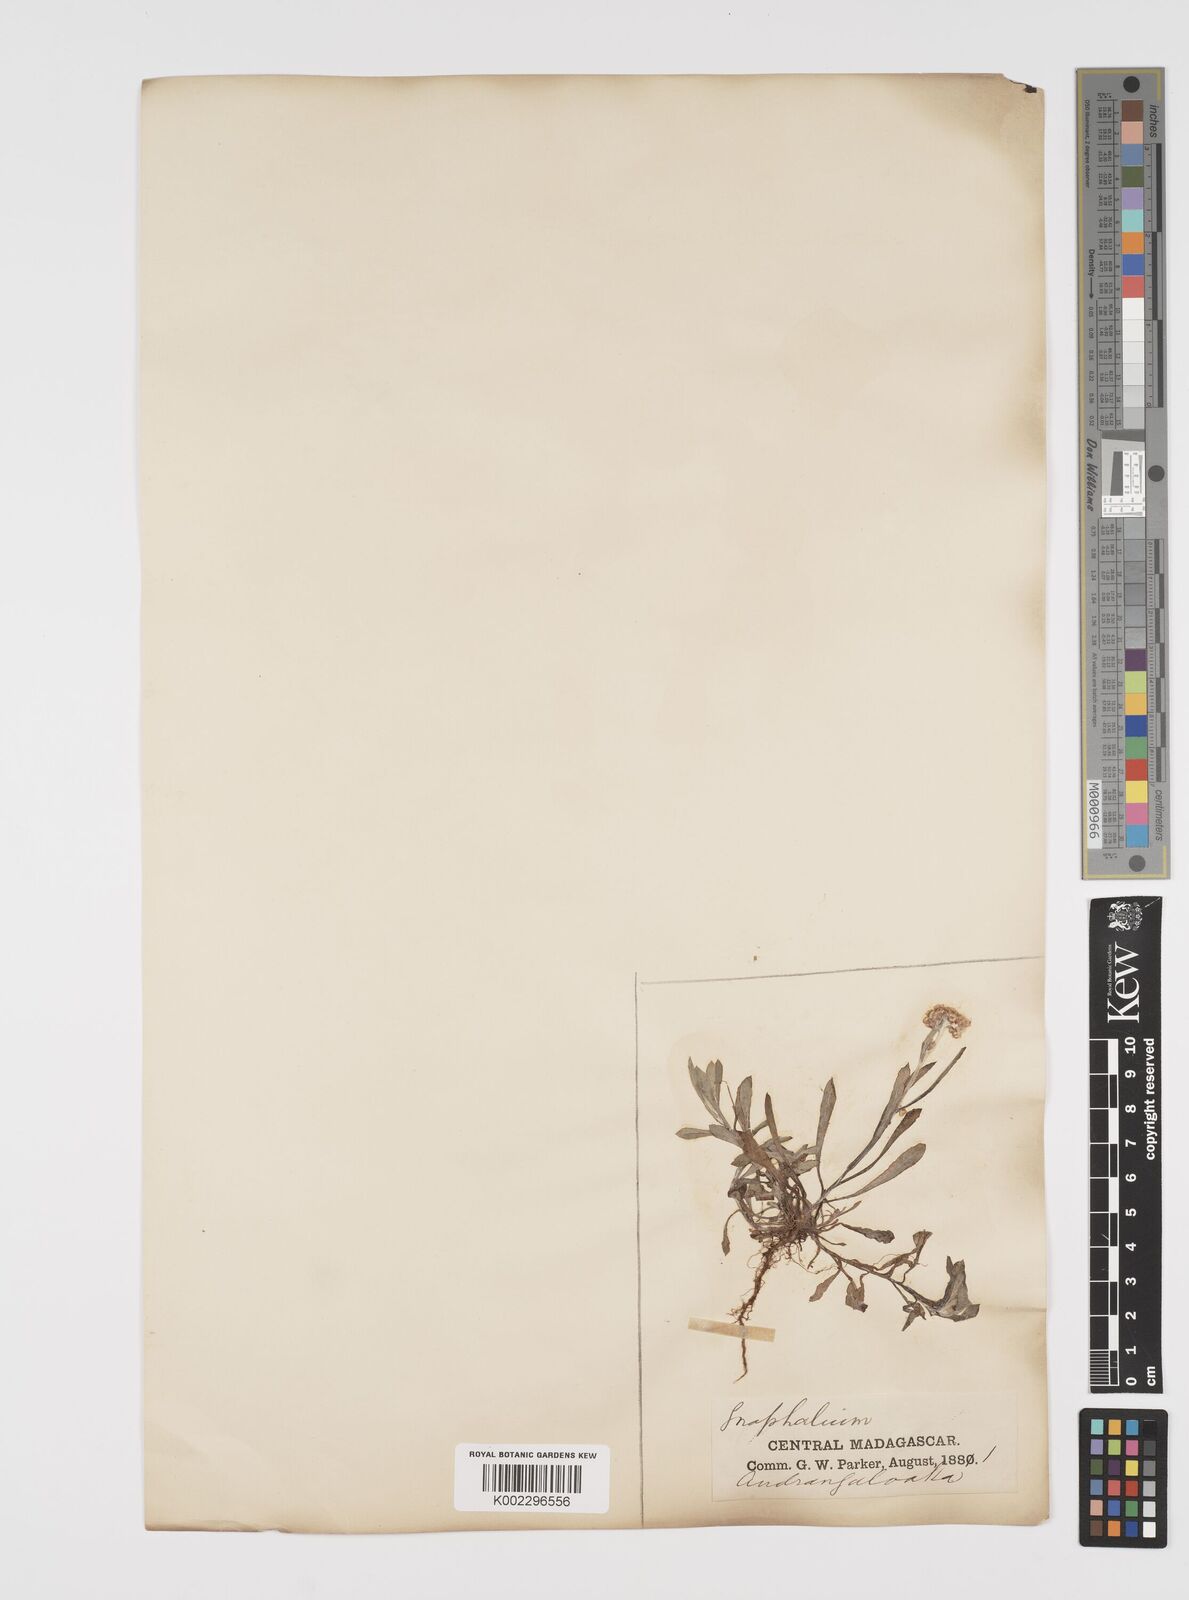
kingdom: Plantae
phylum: Tracheophyta
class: Magnoliopsida
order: Asterales
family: Asteraceae
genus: Helichrysum
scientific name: Helichrysum luteoalbum
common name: Daisy
